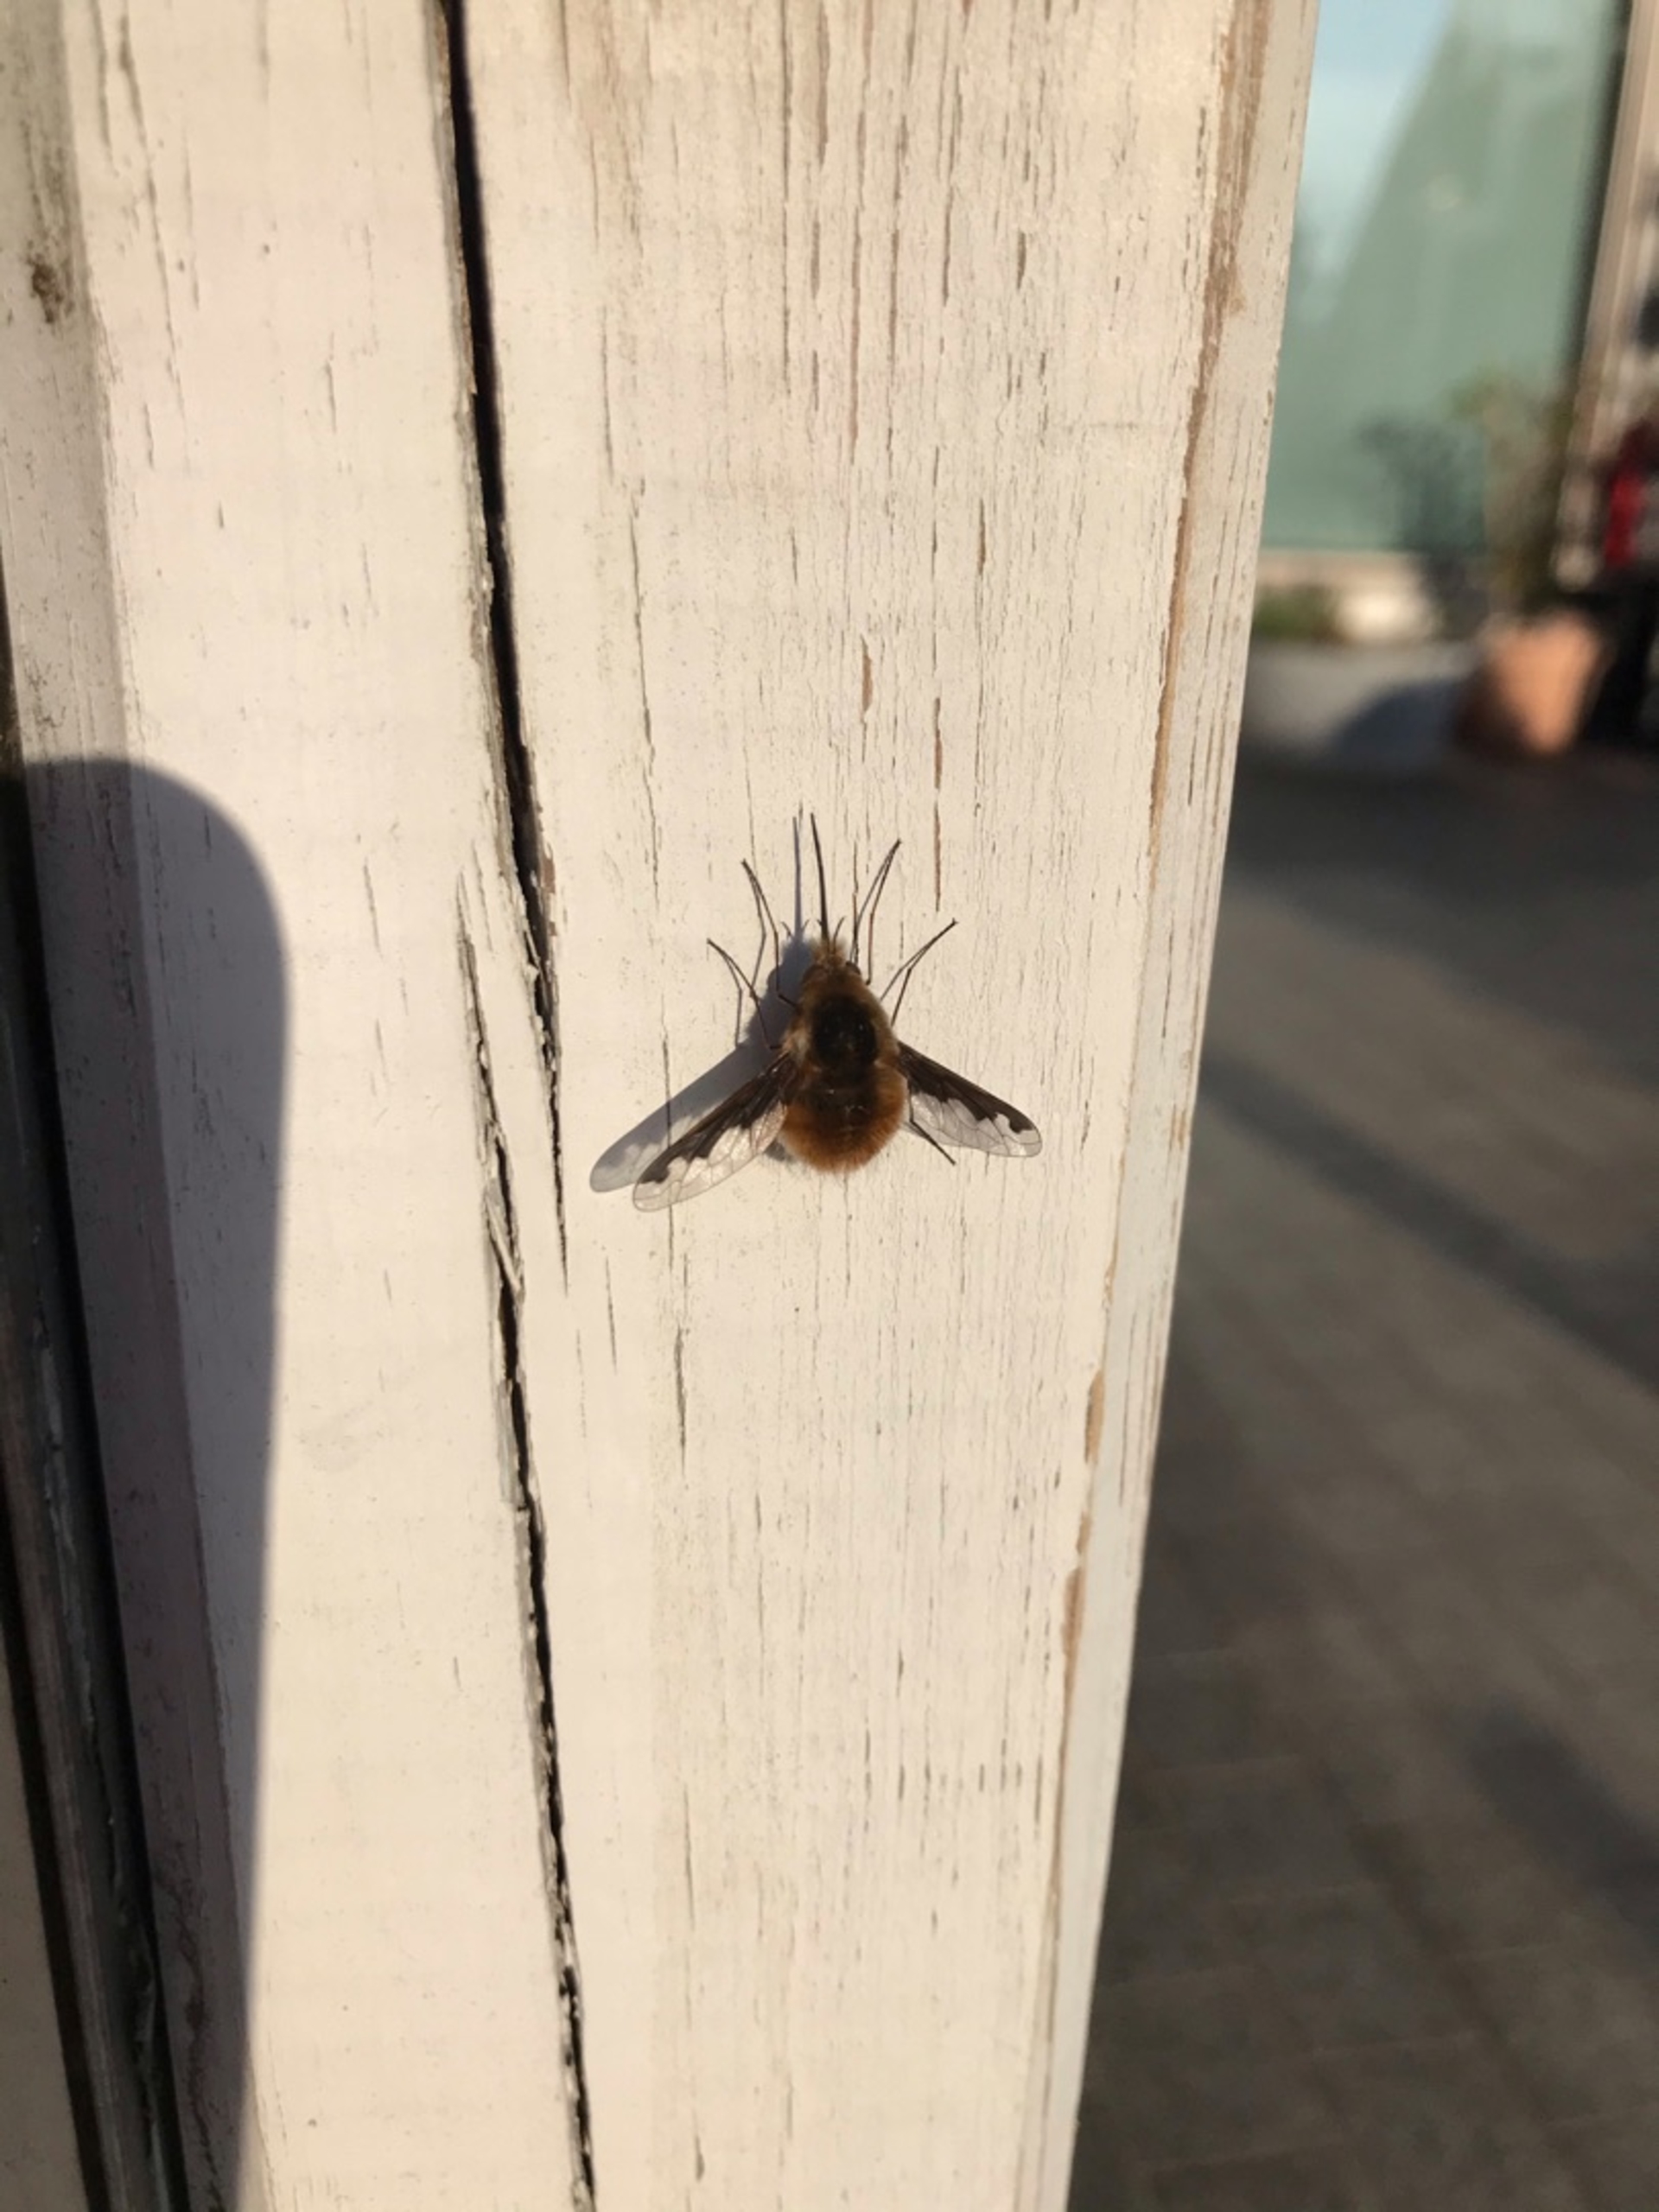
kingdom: Animalia
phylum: Arthropoda
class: Insecta
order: Diptera
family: Bombyliidae
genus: Bombylius
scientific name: Bombylius major
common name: Stor humleflue
